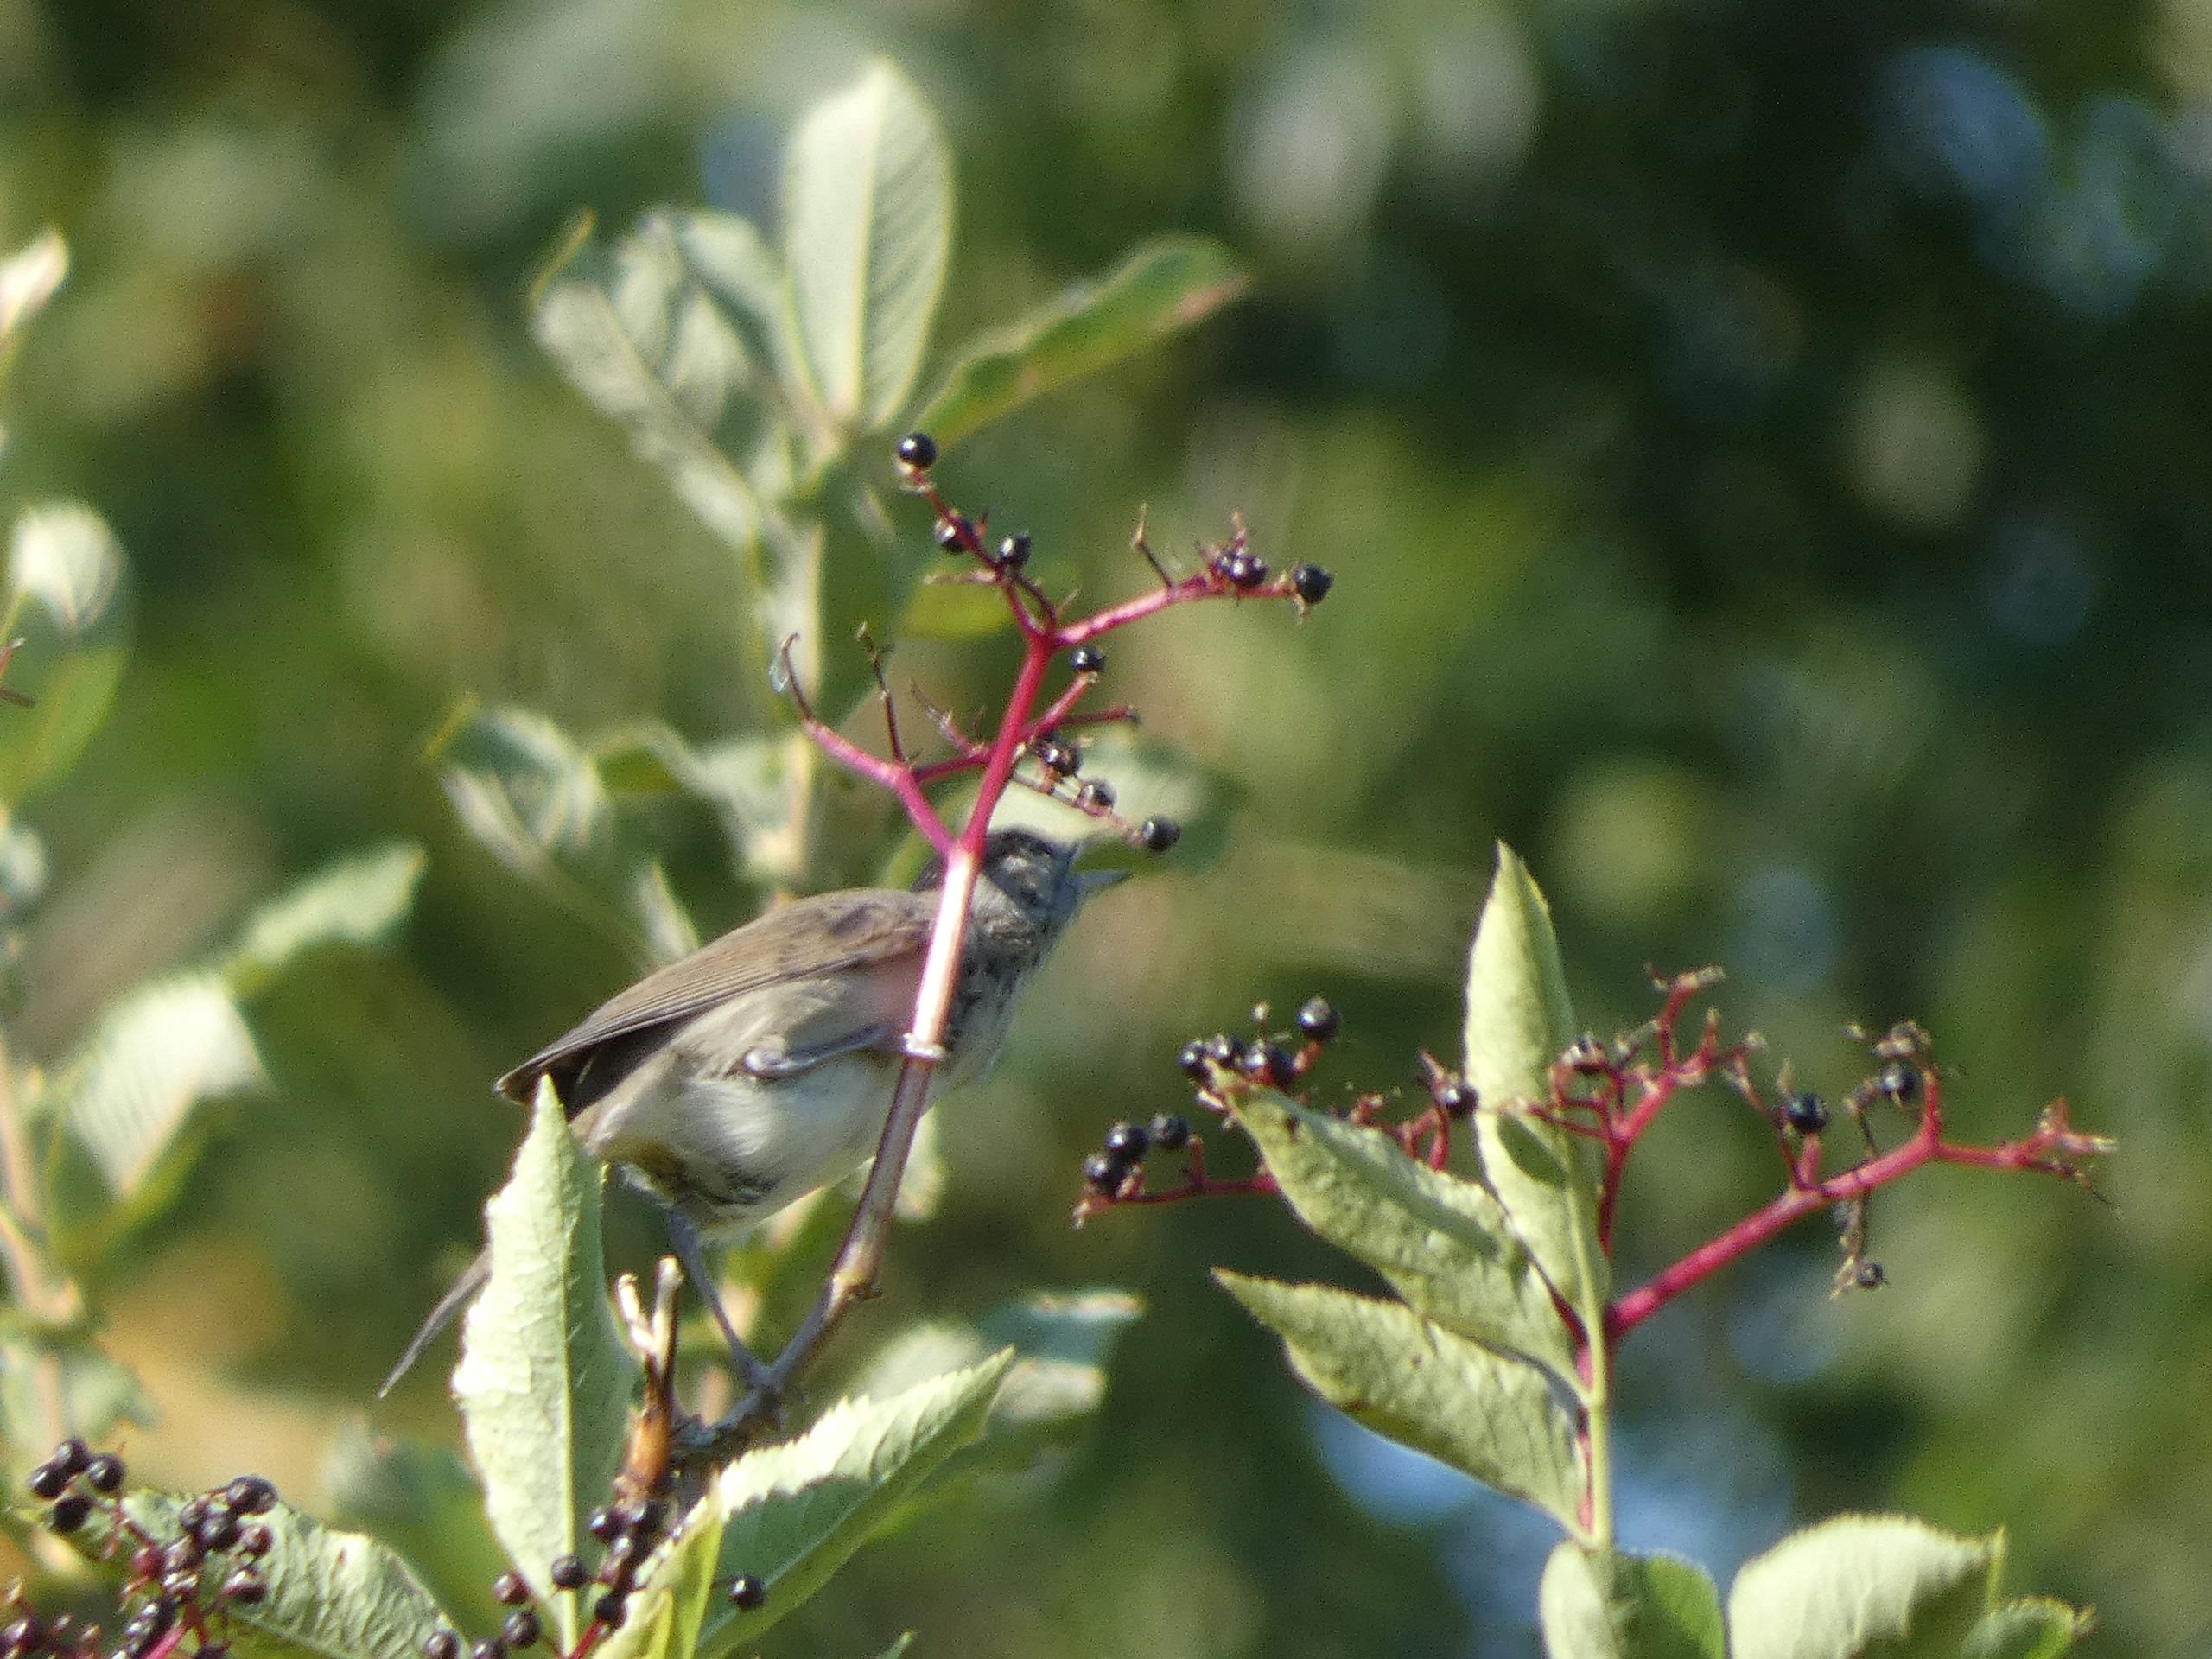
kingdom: Animalia
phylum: Chordata
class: Aves
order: Passeriformes
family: Sylviidae
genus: Sylvia
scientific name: Sylvia atricapilla
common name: Munk
